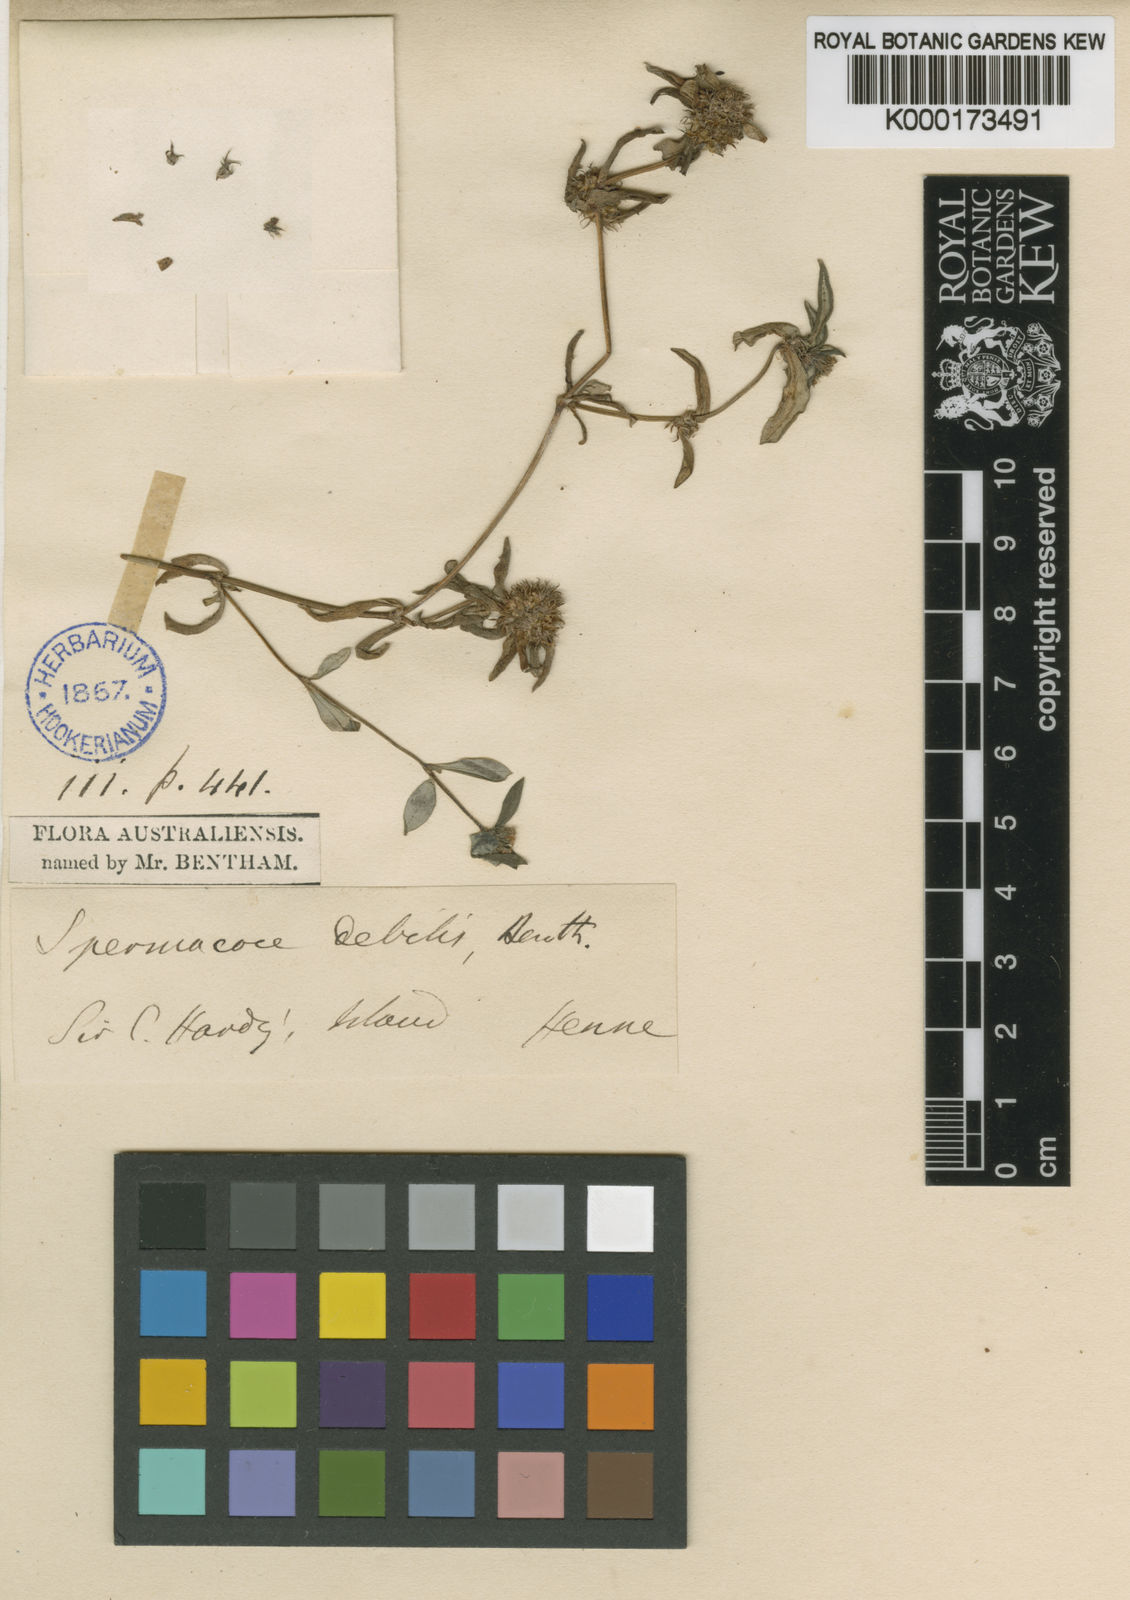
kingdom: Plantae
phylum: Tracheophyta
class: Magnoliopsida
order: Gentianales
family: Rubiaceae
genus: Spermacoce
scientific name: Spermacoce debilis
